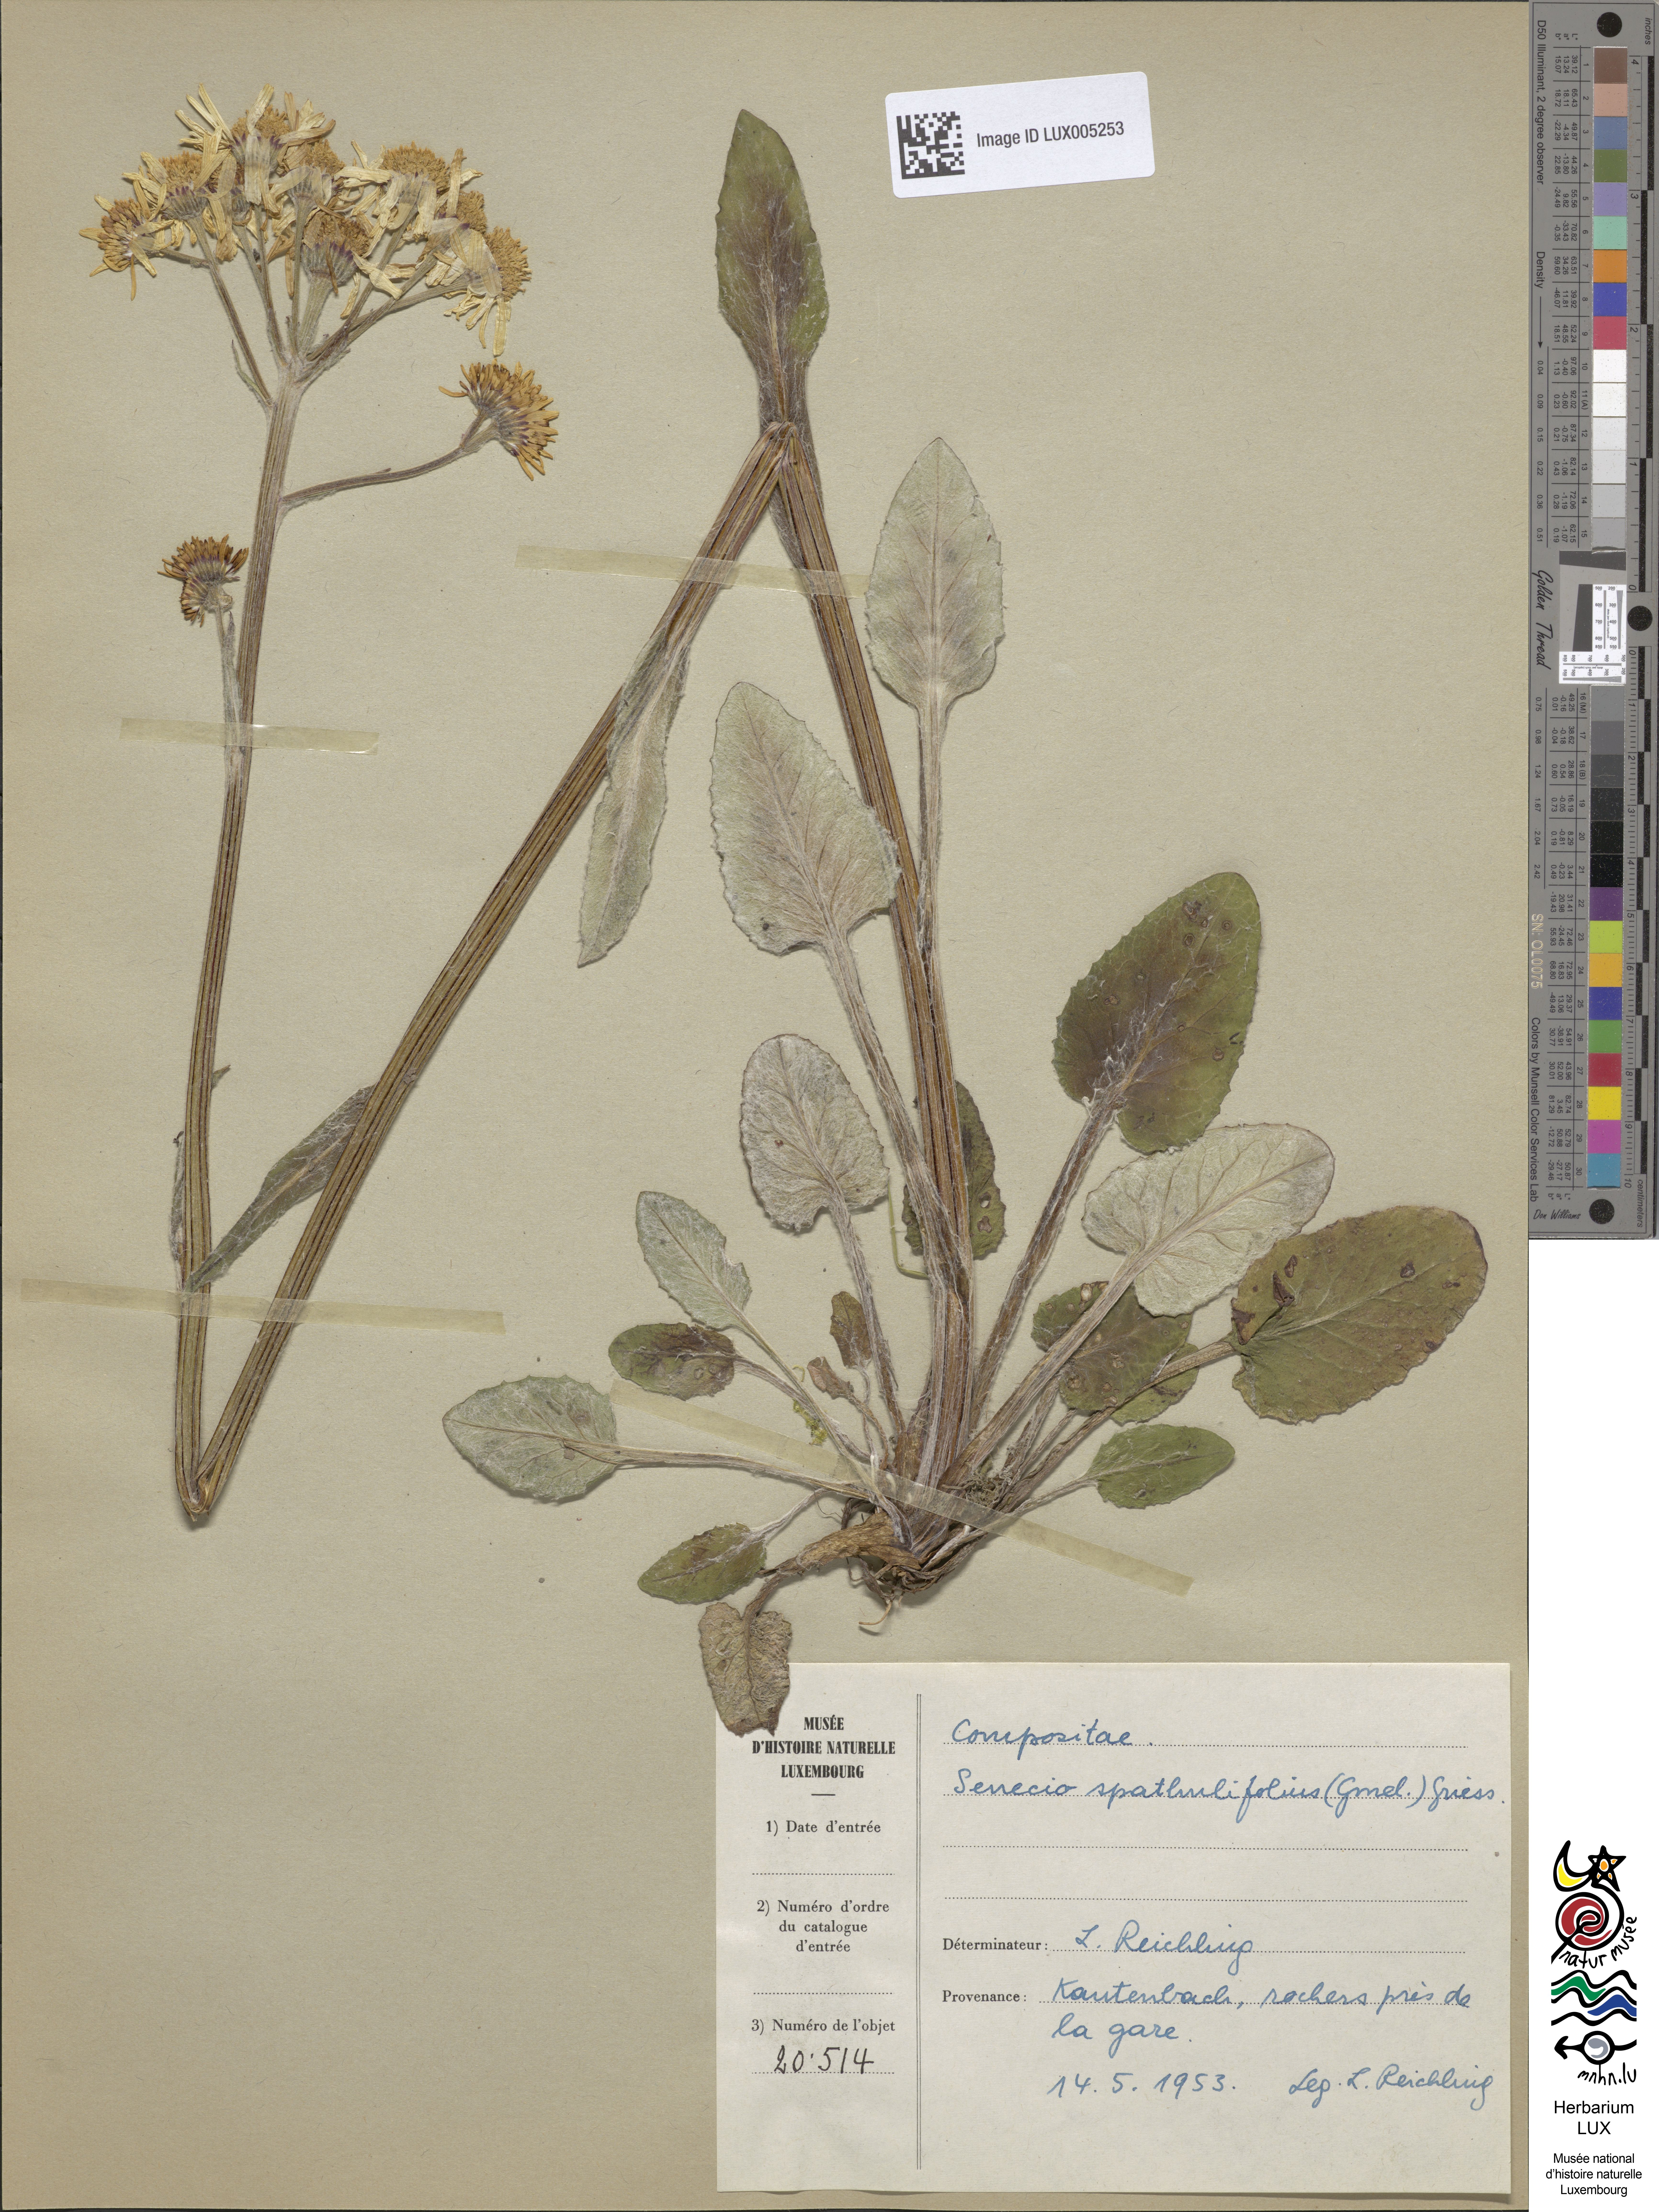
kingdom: Plantae
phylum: Tracheophyta
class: Magnoliopsida
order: Asterales
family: Asteraceae
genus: Tephroseris
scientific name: Tephroseris helenitis
